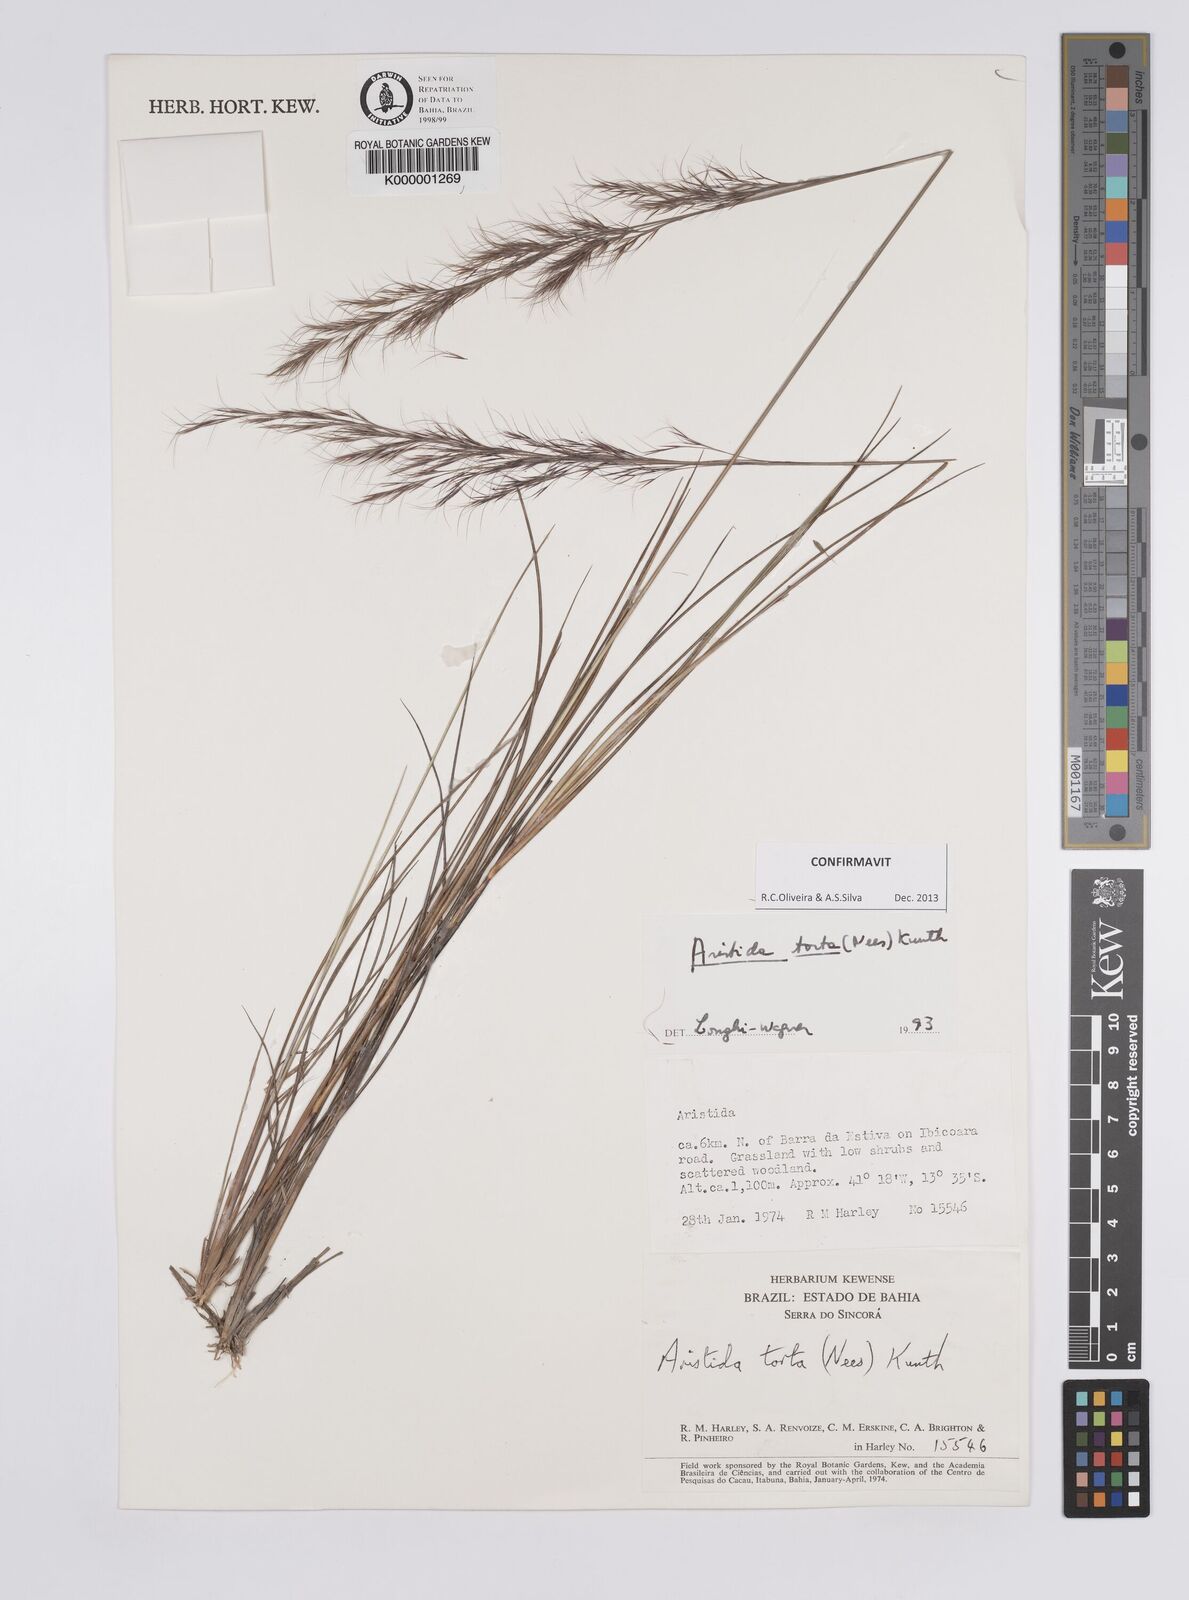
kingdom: Plantae
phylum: Tracheophyta
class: Liliopsida
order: Poales
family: Poaceae
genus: Aristida
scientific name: Aristida torta
